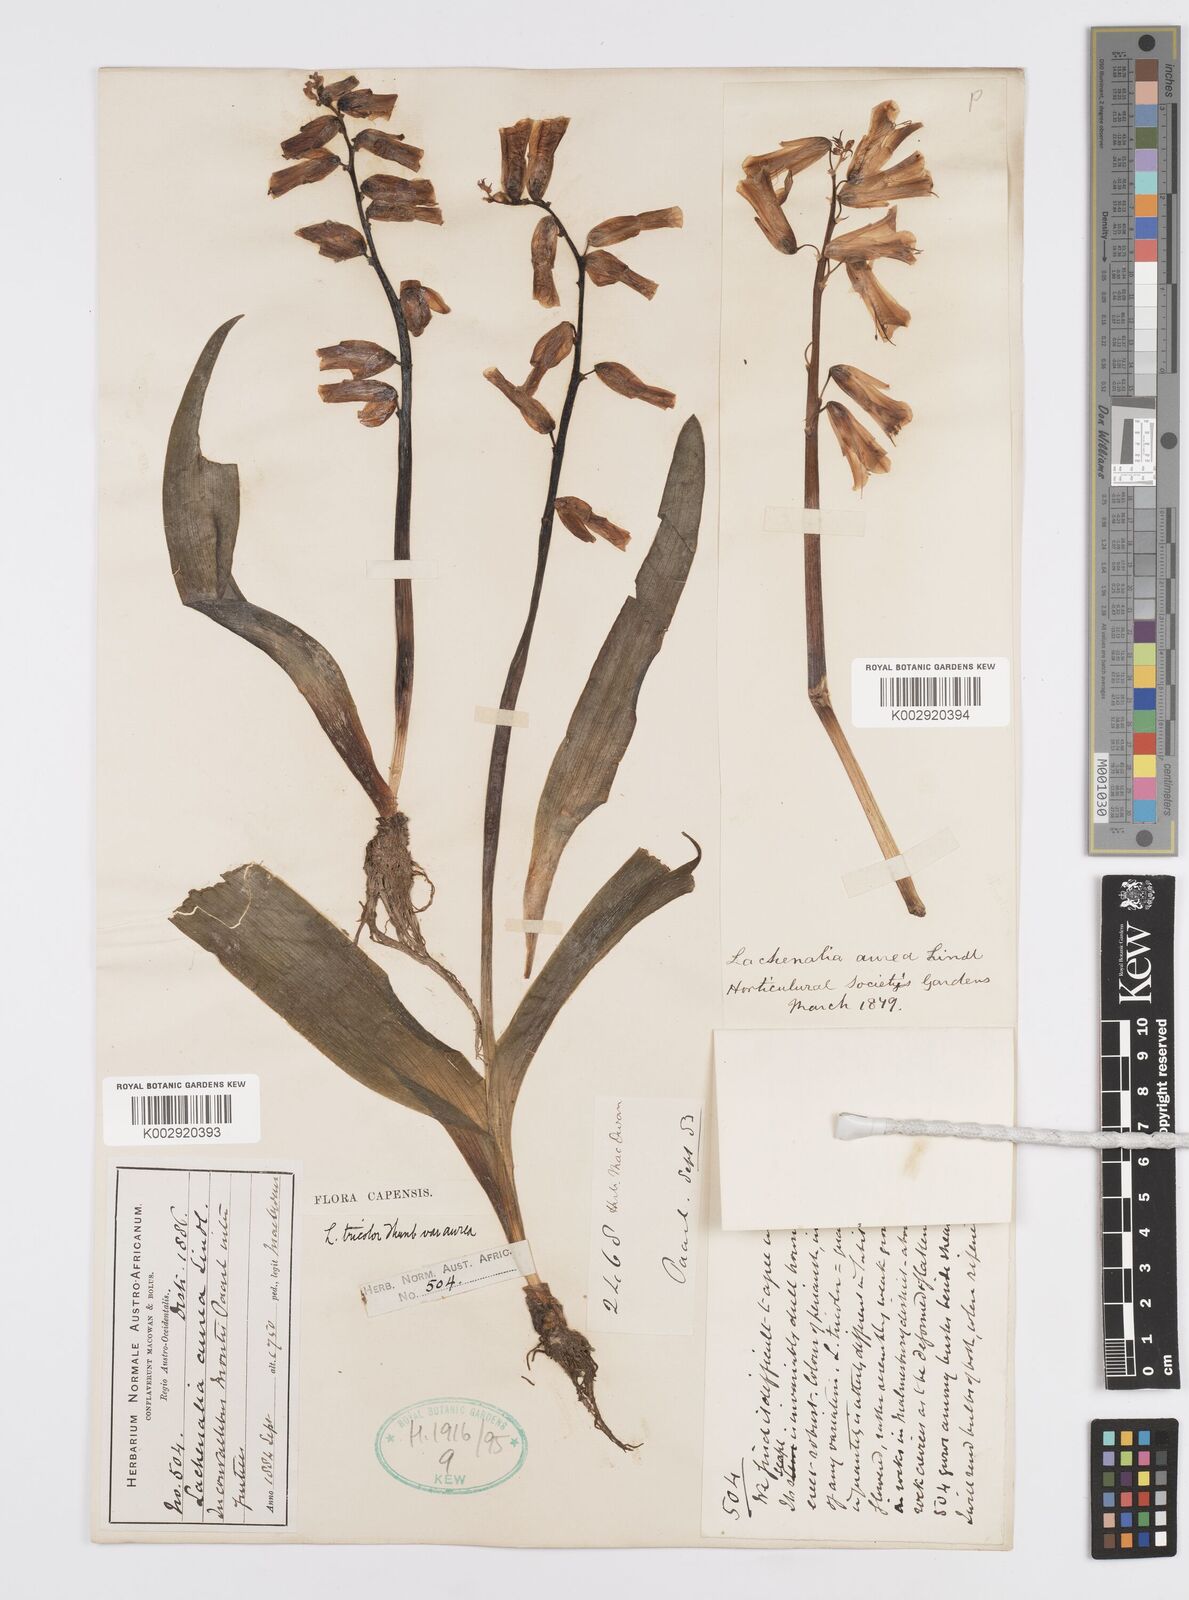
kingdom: Plantae
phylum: Tracheophyta
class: Liliopsida
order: Asparagales
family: Asparagaceae
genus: Lachenalia
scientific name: Lachenalia
